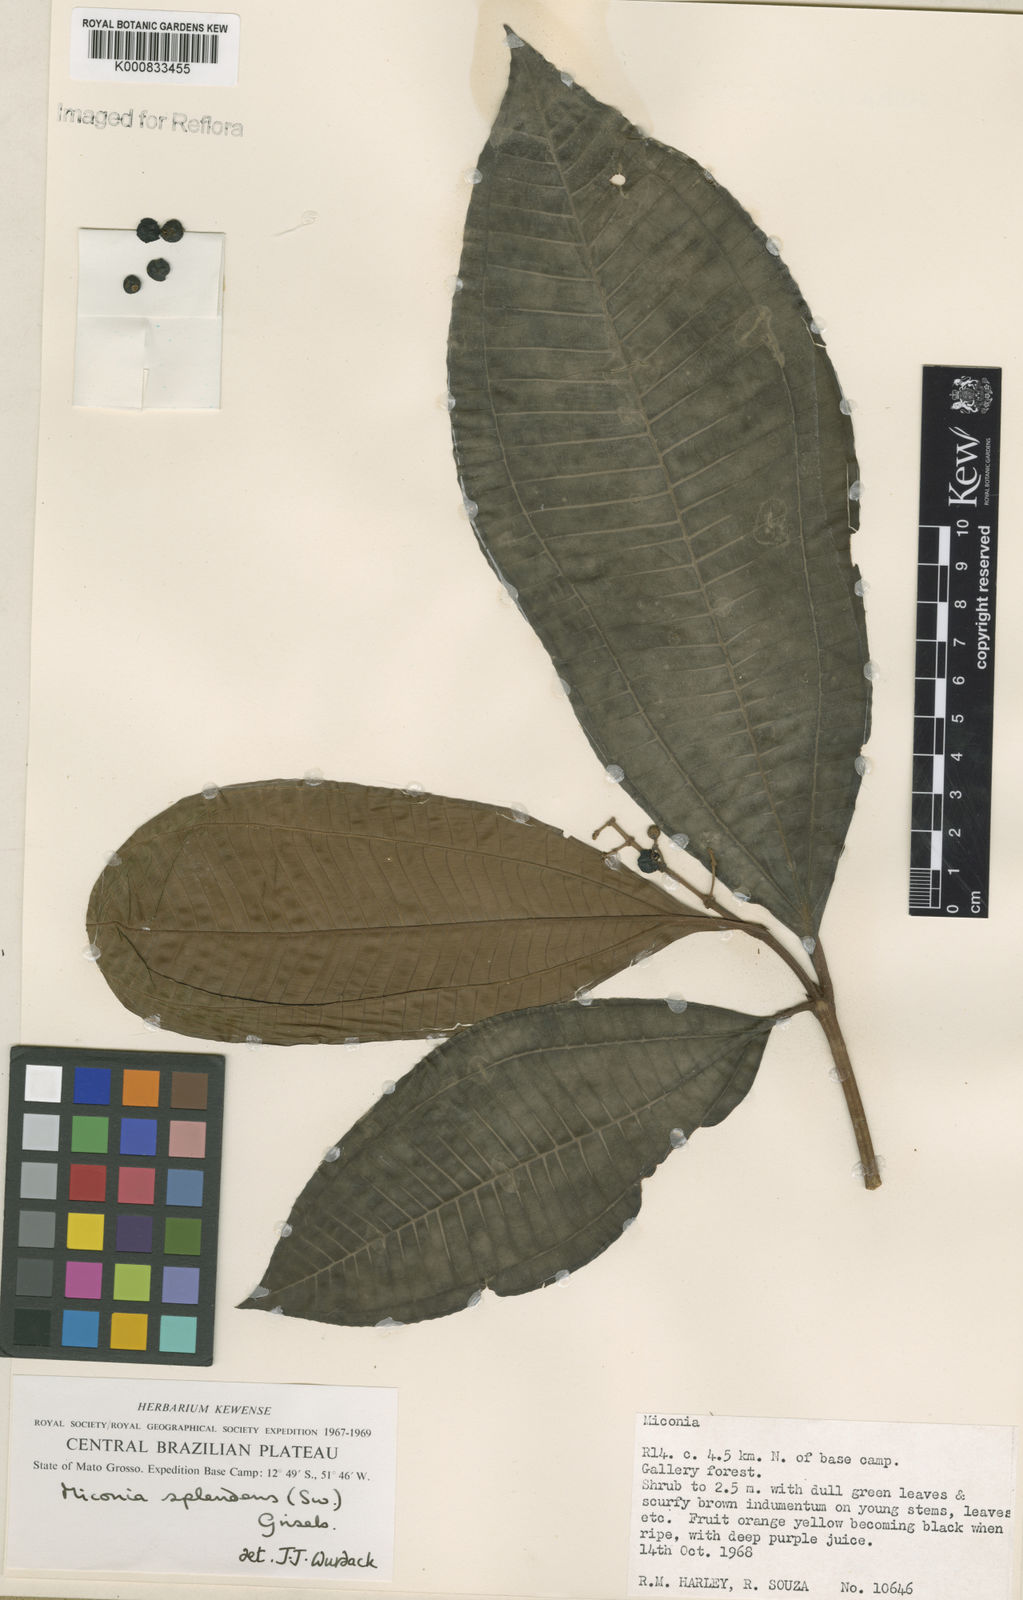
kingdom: Plantae
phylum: Tracheophyta
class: Magnoliopsida
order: Myrtales
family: Melastomataceae
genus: Miconia
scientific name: Miconia splendens
